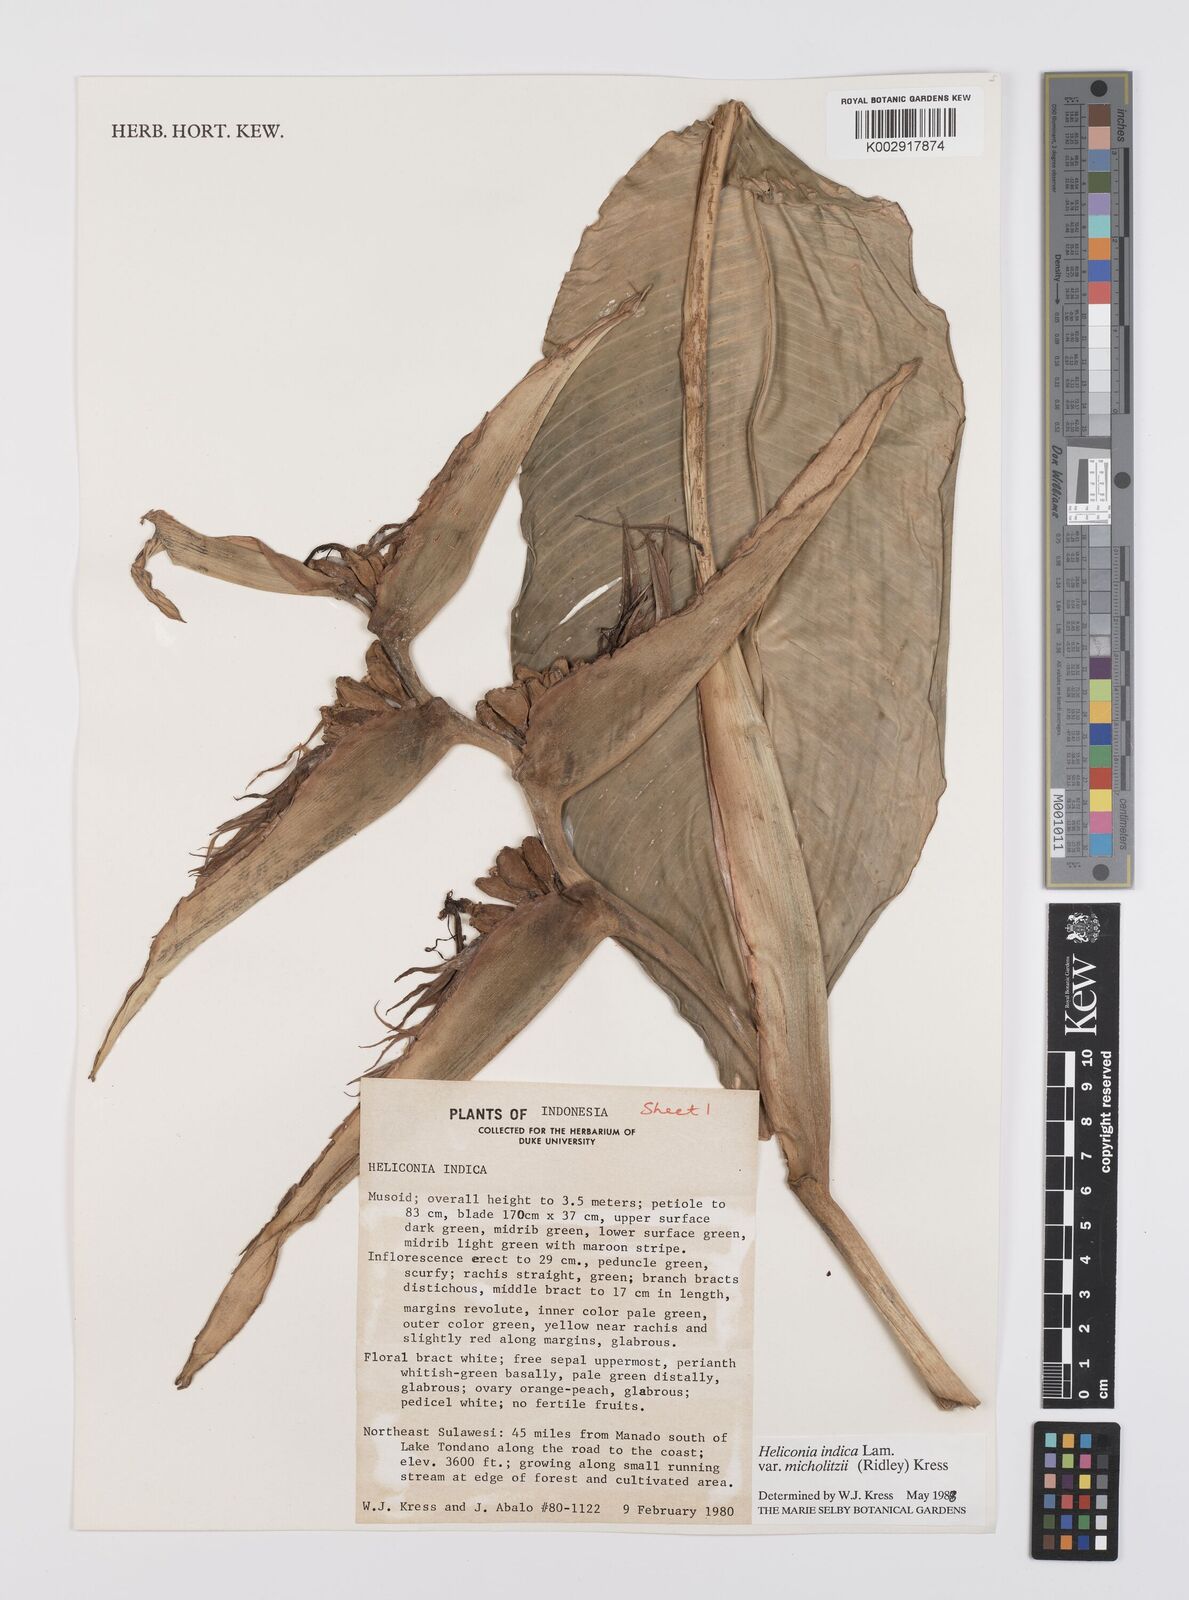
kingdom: Plantae
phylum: Tracheophyta
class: Liliopsida
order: Zingiberales
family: Heliconiaceae
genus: Heliconia
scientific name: Heliconia indica
